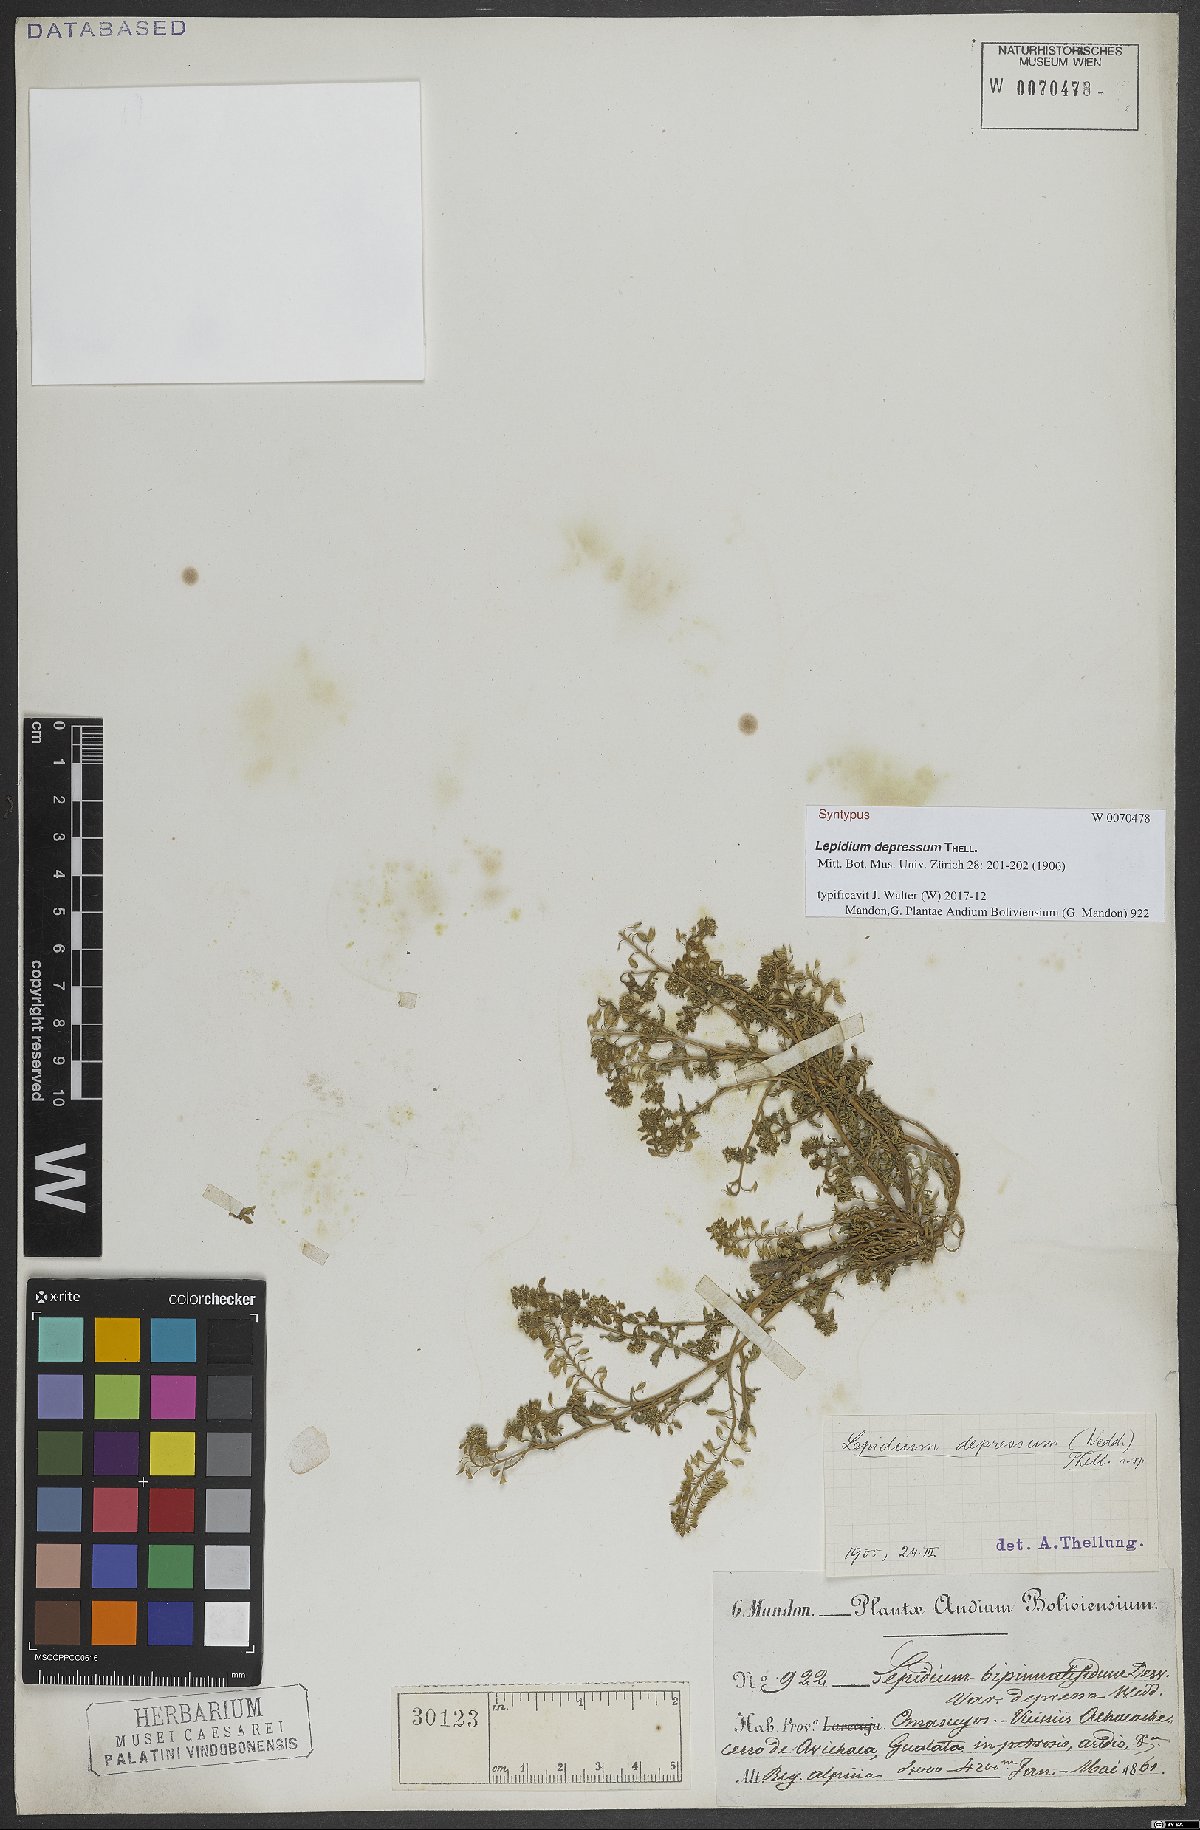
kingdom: Plantae
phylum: Tracheophyta
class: Magnoliopsida
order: Brassicales
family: Brassicaceae
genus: Lepidium
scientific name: Lepidium depressum
